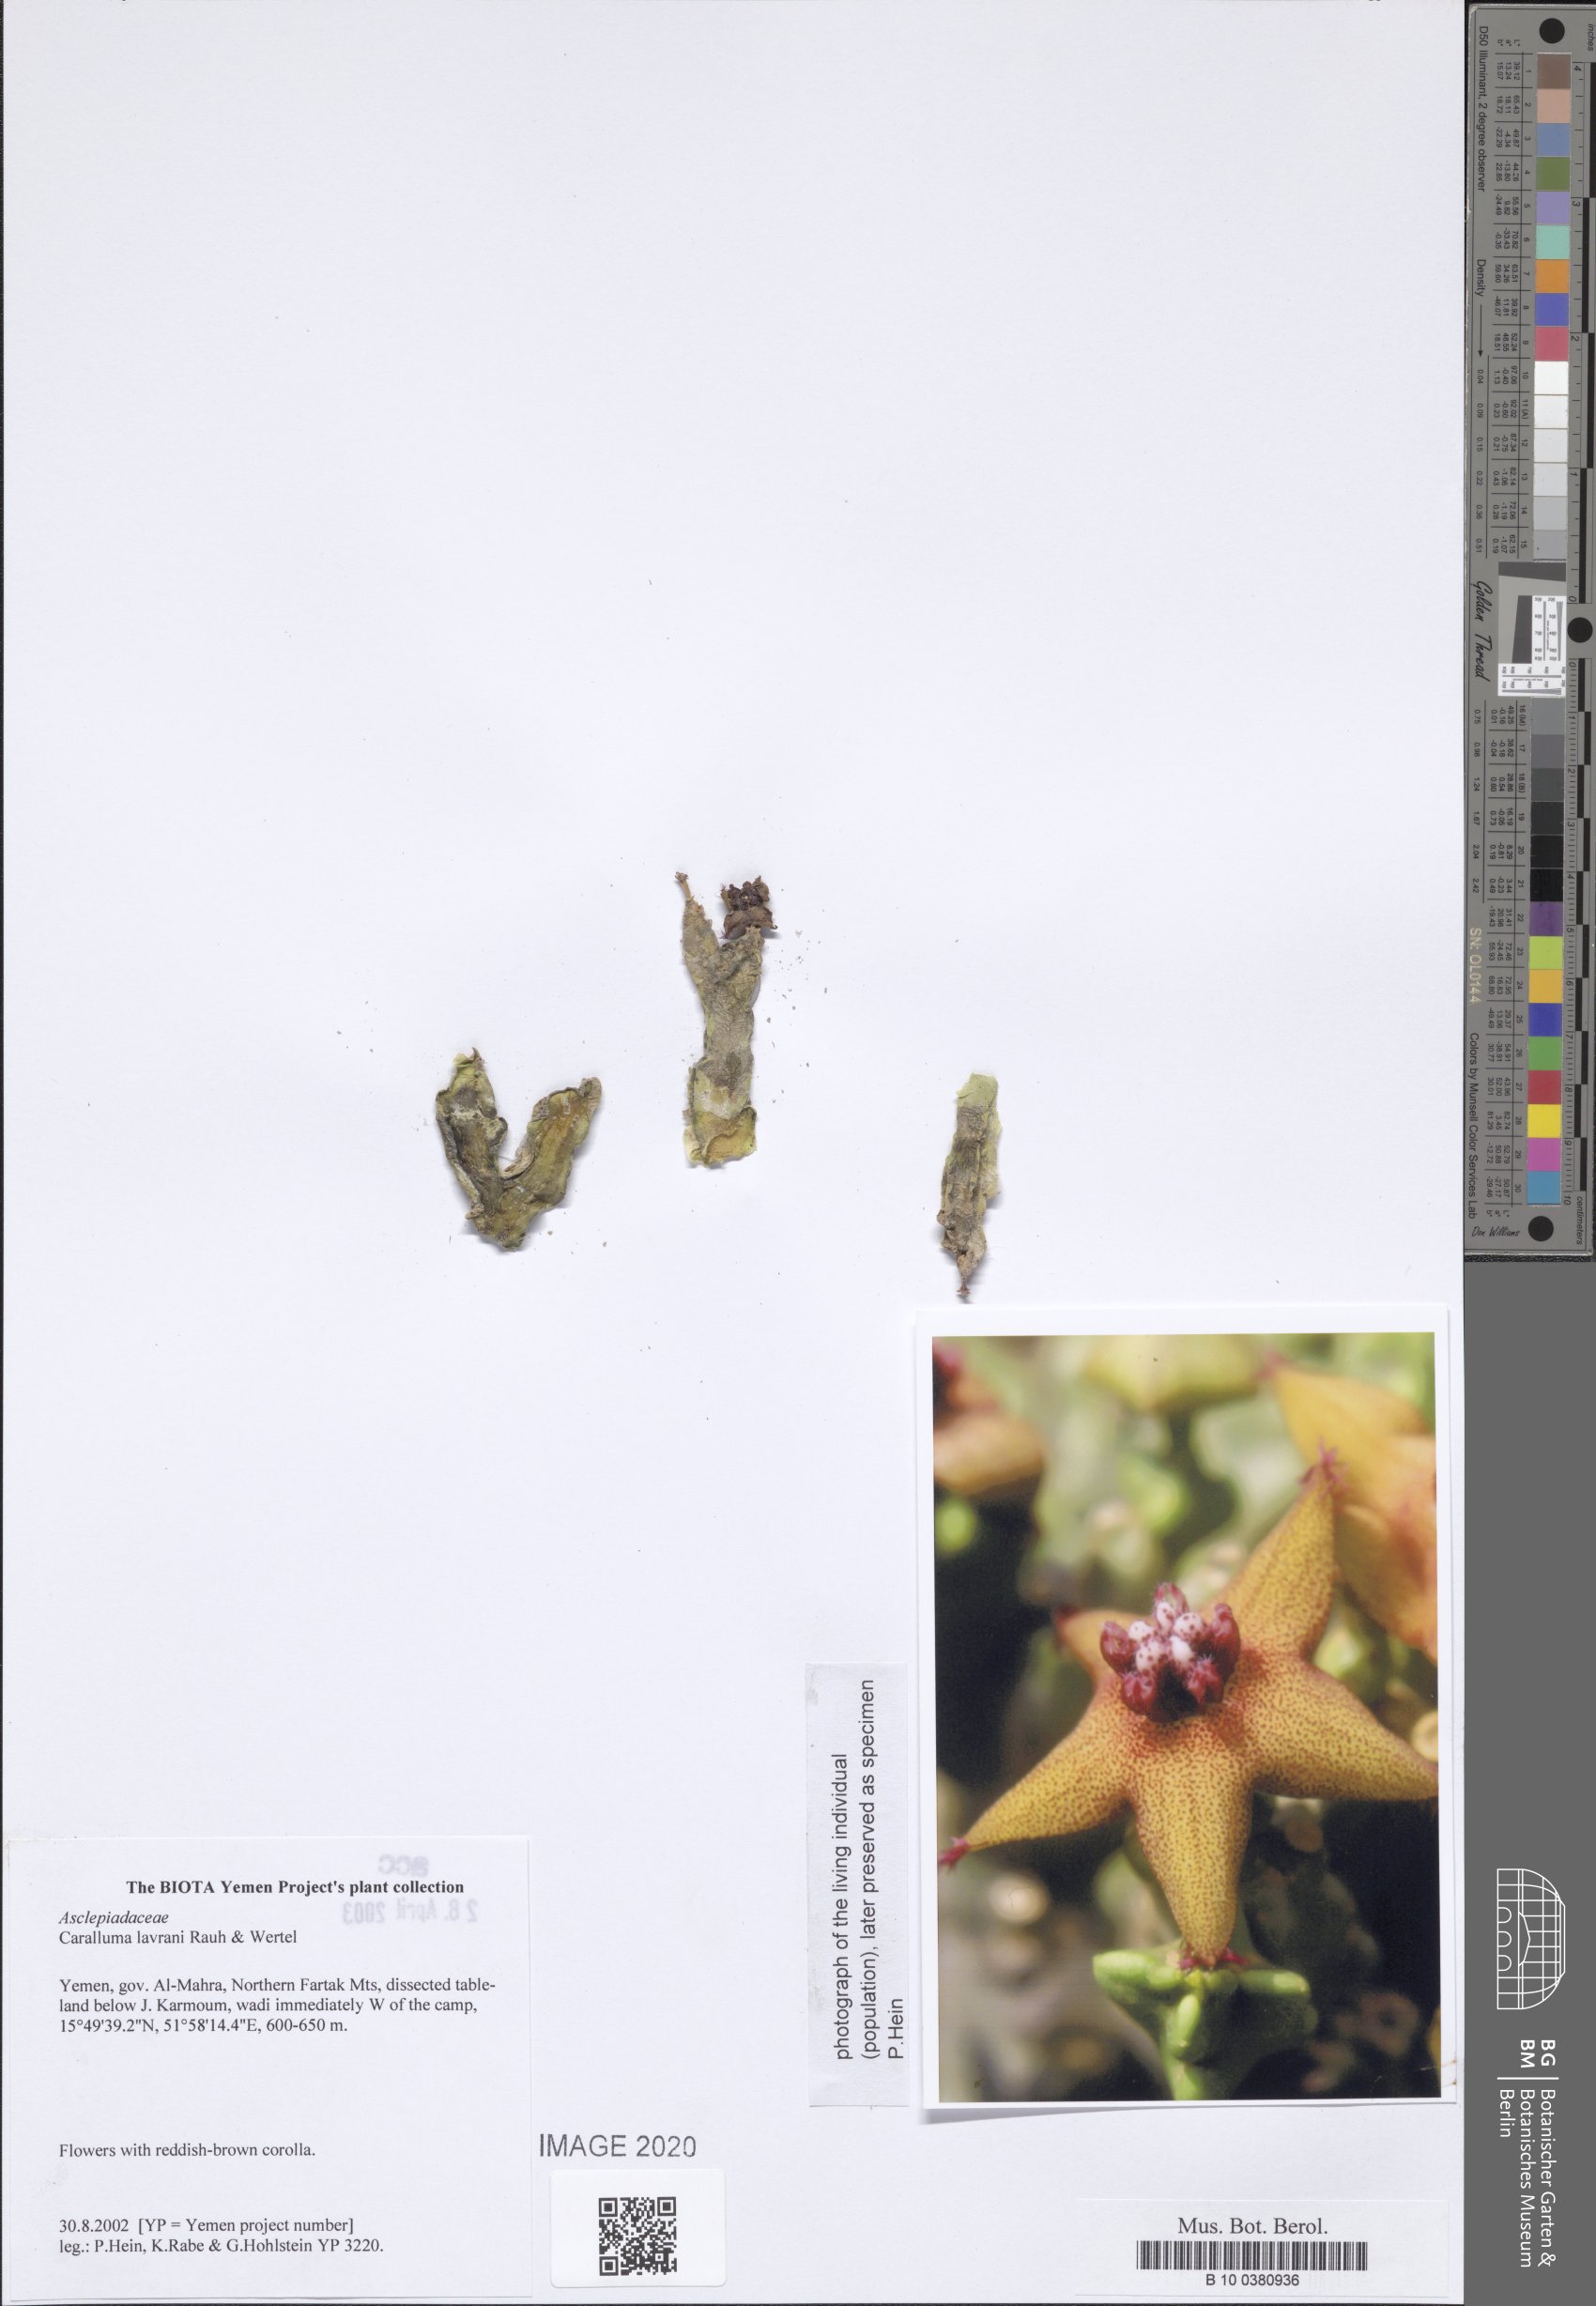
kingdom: Plantae
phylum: Tracheophyta
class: Magnoliopsida
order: Gentianales
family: Apocynaceae
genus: Ceropegia
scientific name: Ceropegia dolichocarpa
